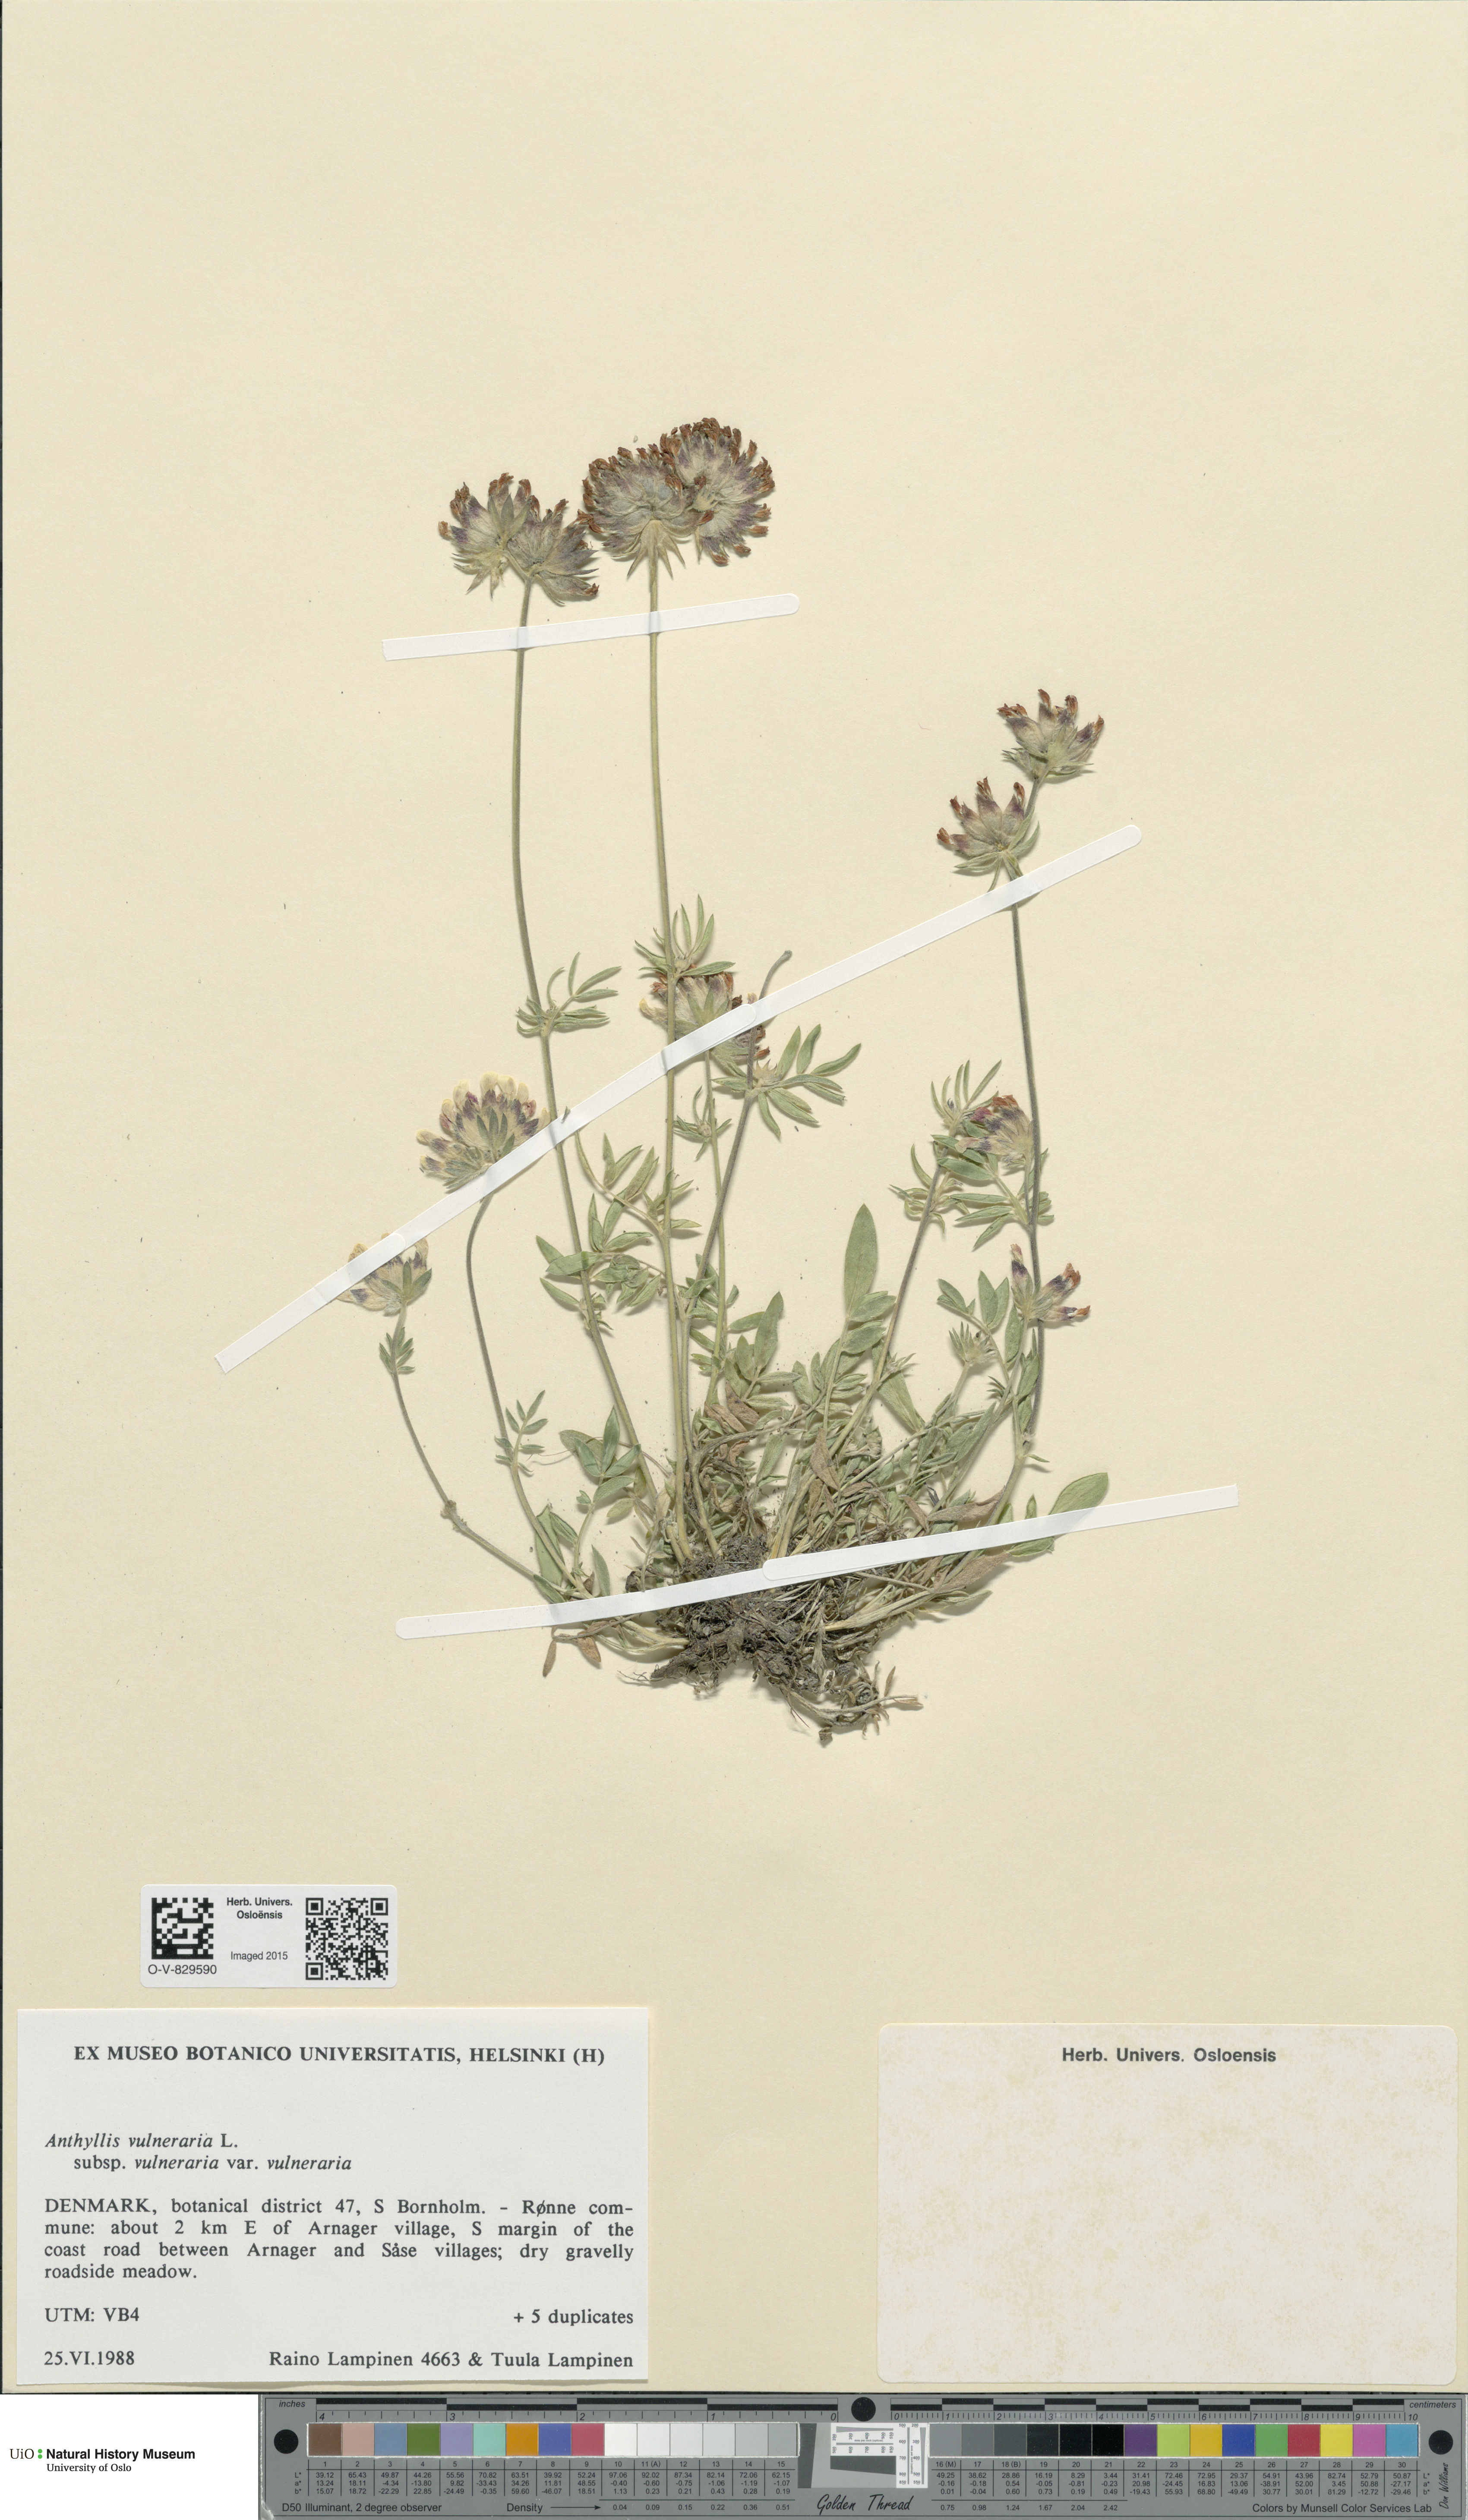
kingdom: Plantae
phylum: Tracheophyta
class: Magnoliopsida
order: Fabales
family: Fabaceae
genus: Anthyllis
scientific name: Anthyllis vulneraria
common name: Kidney vetch
